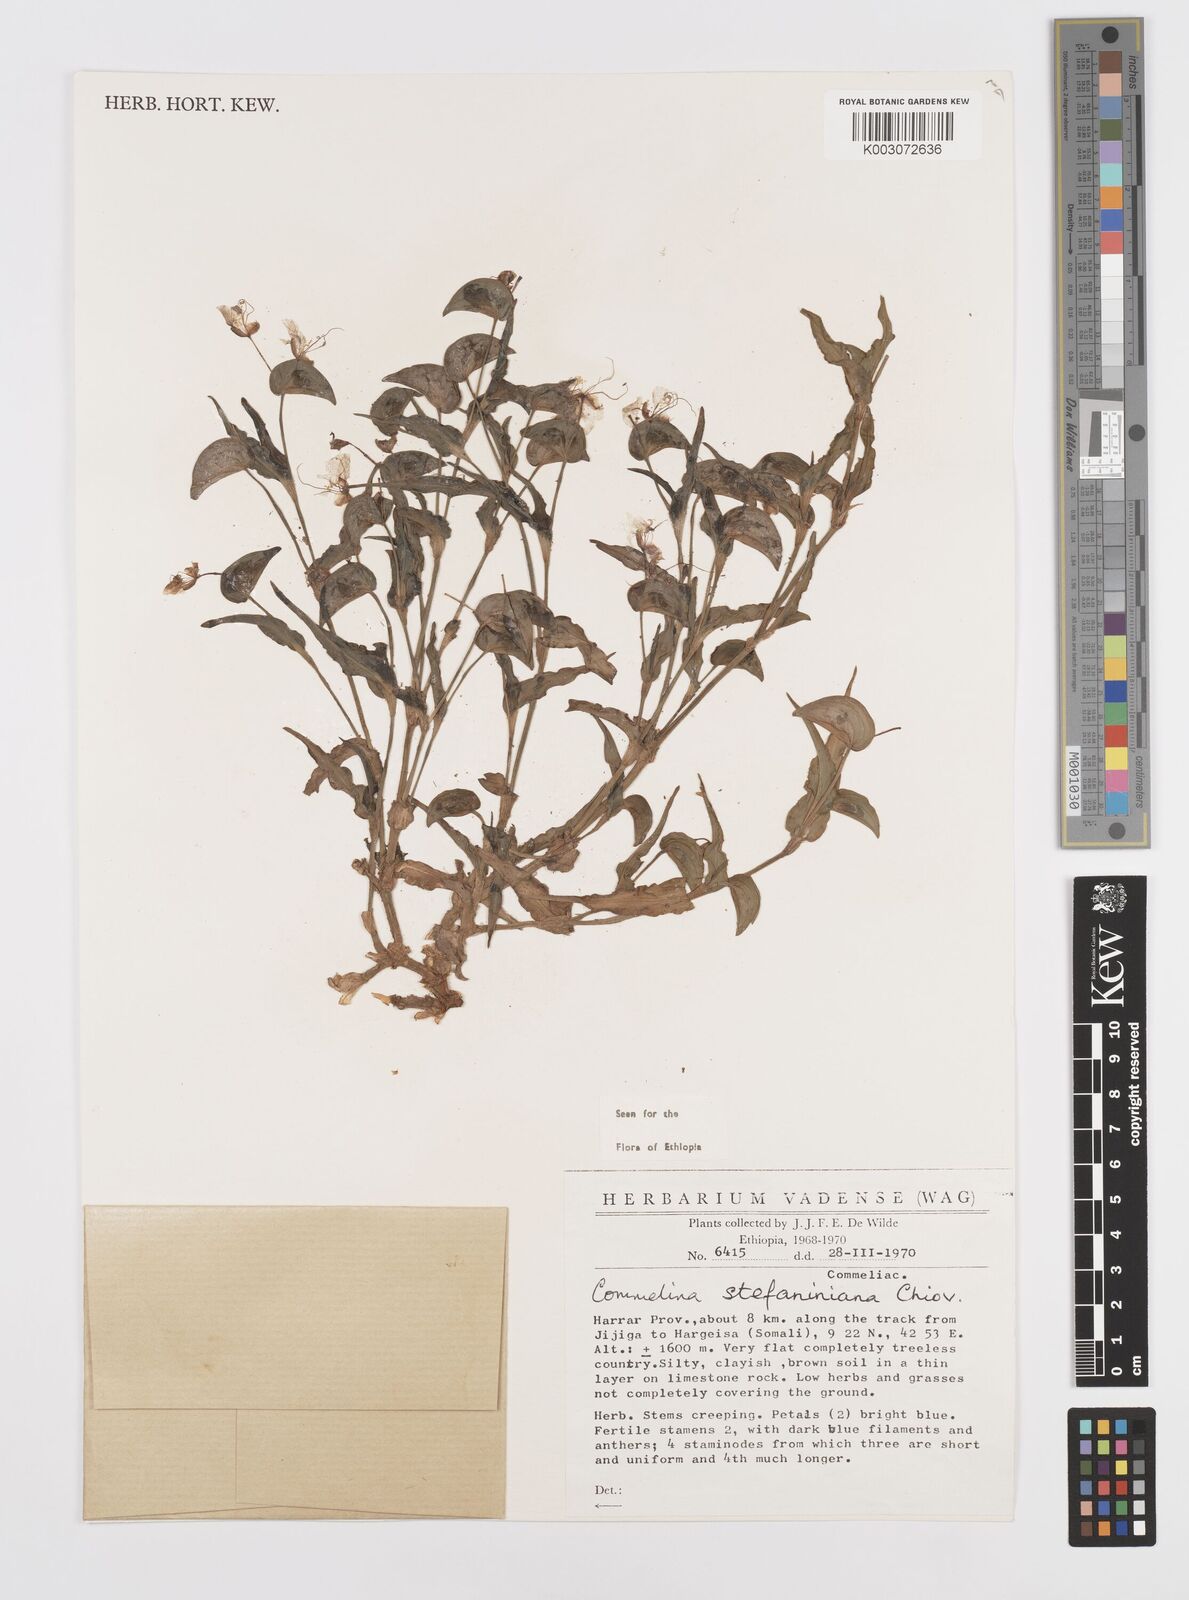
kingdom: Plantae
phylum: Tracheophyta
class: Liliopsida
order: Commelinales
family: Commelinaceae
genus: Commelina
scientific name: Commelina stefaniniana
